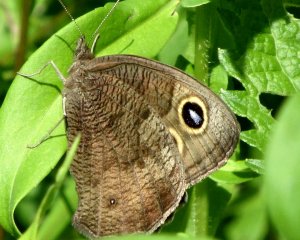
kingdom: Animalia
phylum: Arthropoda
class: Insecta
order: Lepidoptera
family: Nymphalidae
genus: Cercyonis
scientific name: Cercyonis pegala
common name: Common Wood-Nymph
